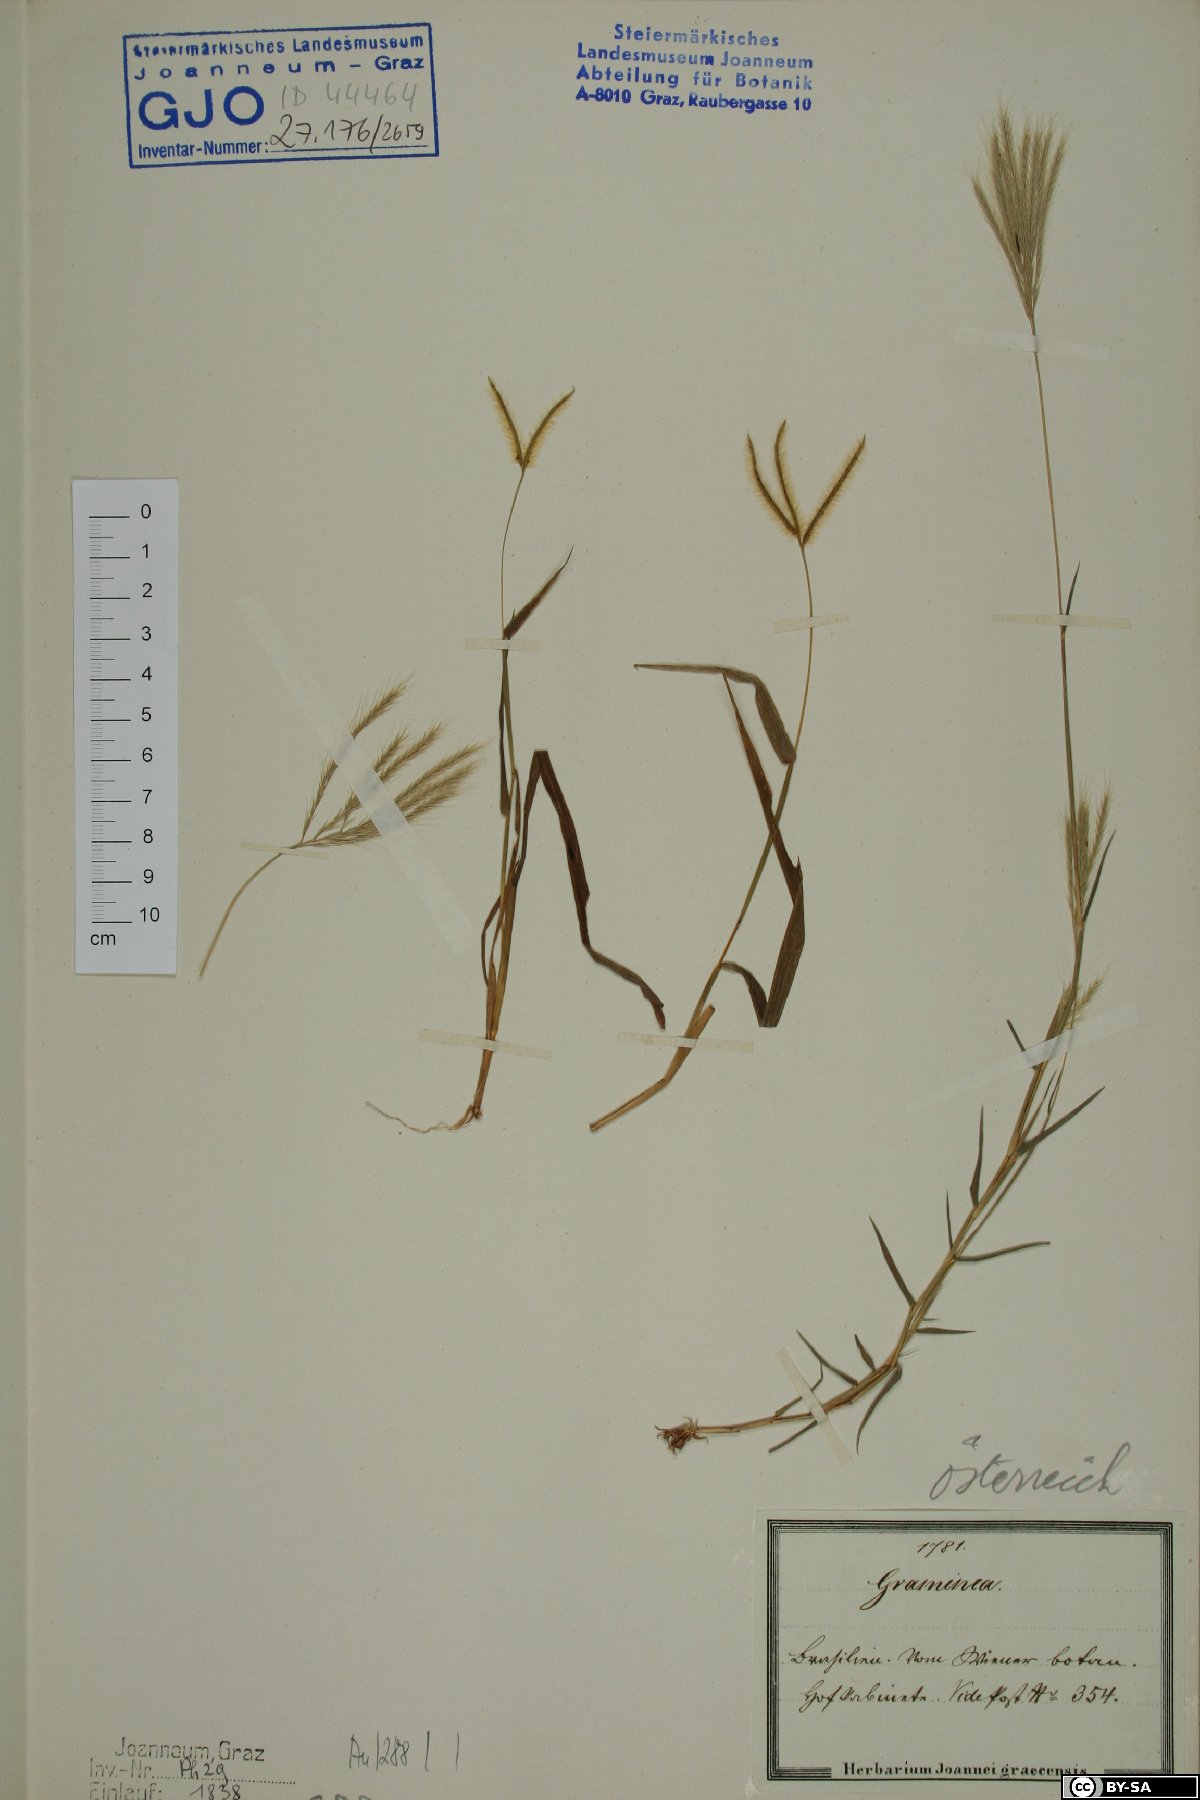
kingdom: Plantae
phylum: Tracheophyta
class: Liliopsida
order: Poales
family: Poaceae
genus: Chloris
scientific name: Chloris
